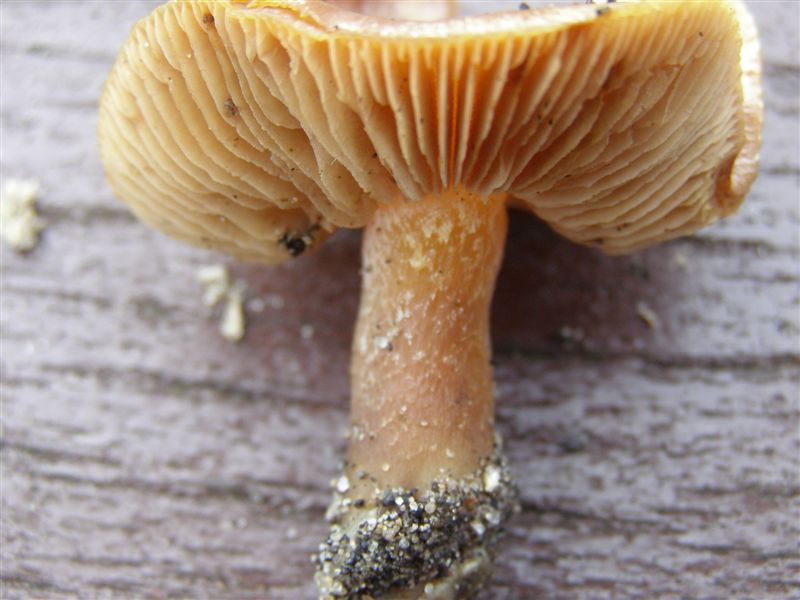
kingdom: Fungi
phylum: Basidiomycota
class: Agaricomycetes
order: Agaricales
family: Hymenogastraceae
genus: Hebeloma
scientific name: Hebeloma vaccinum
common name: ko-tåreblad
